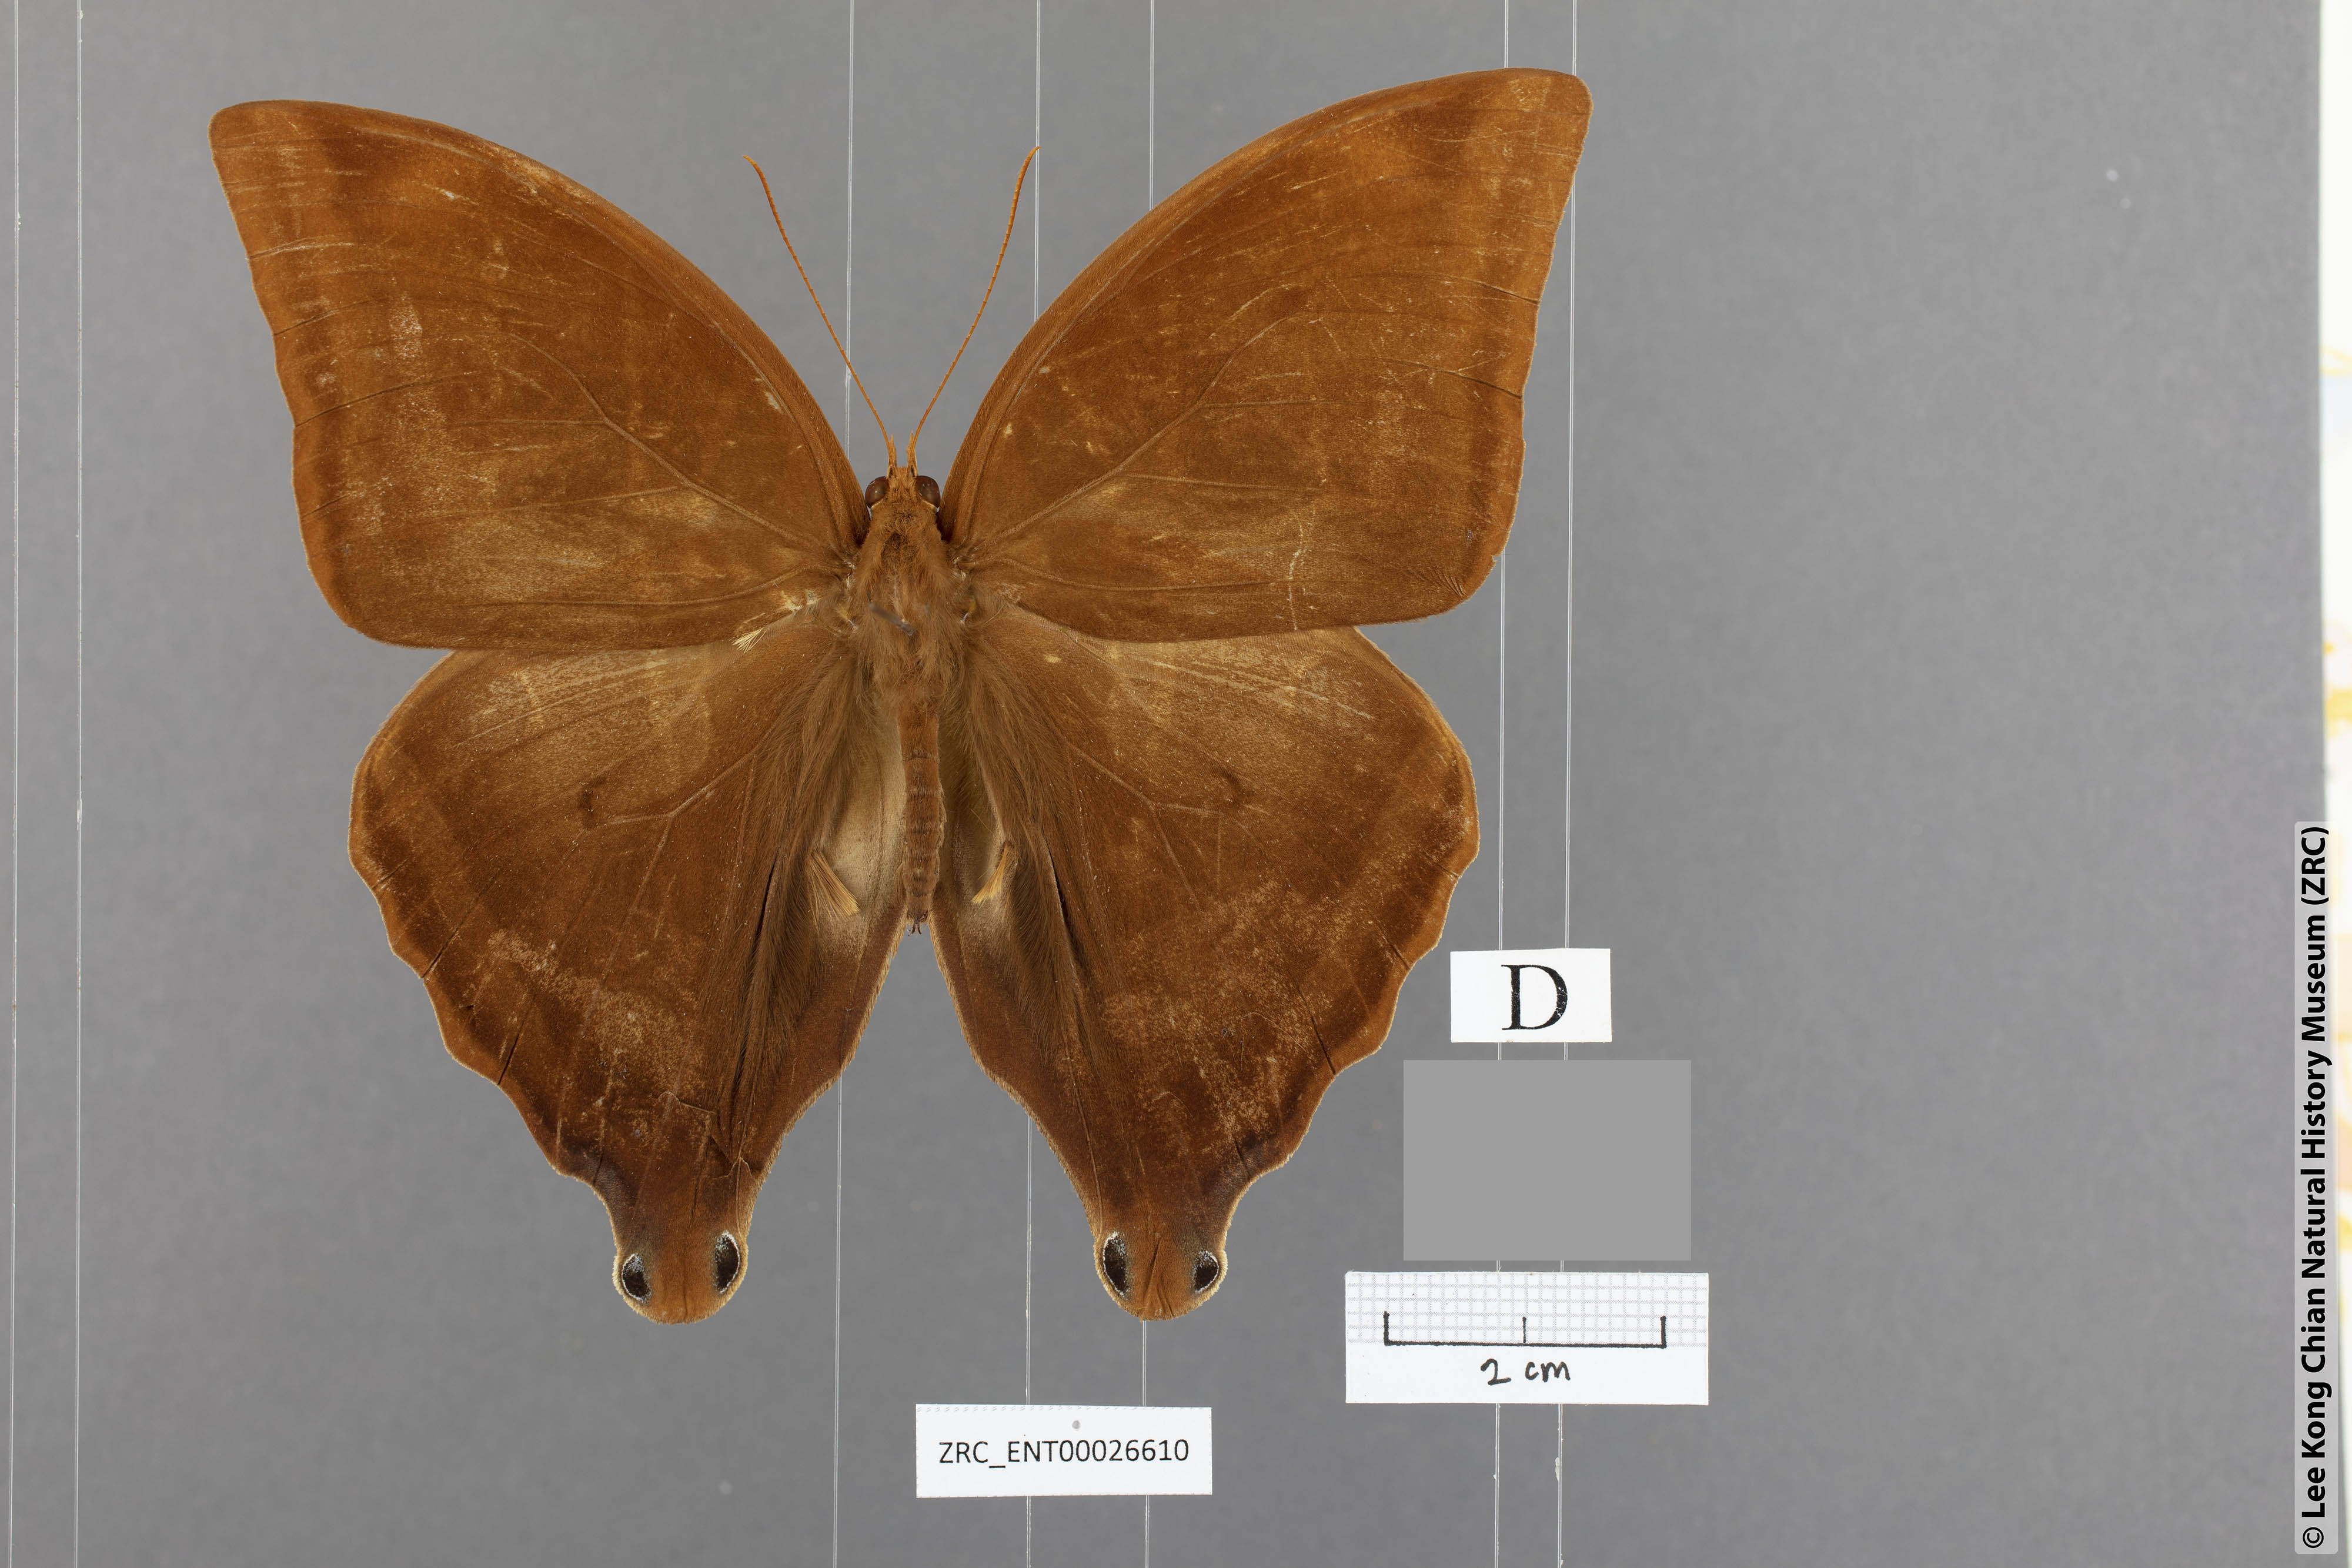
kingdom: Animalia
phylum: Arthropoda
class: Insecta
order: Lepidoptera
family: Nymphalidae
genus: Amathusia
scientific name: Amathusia masina
